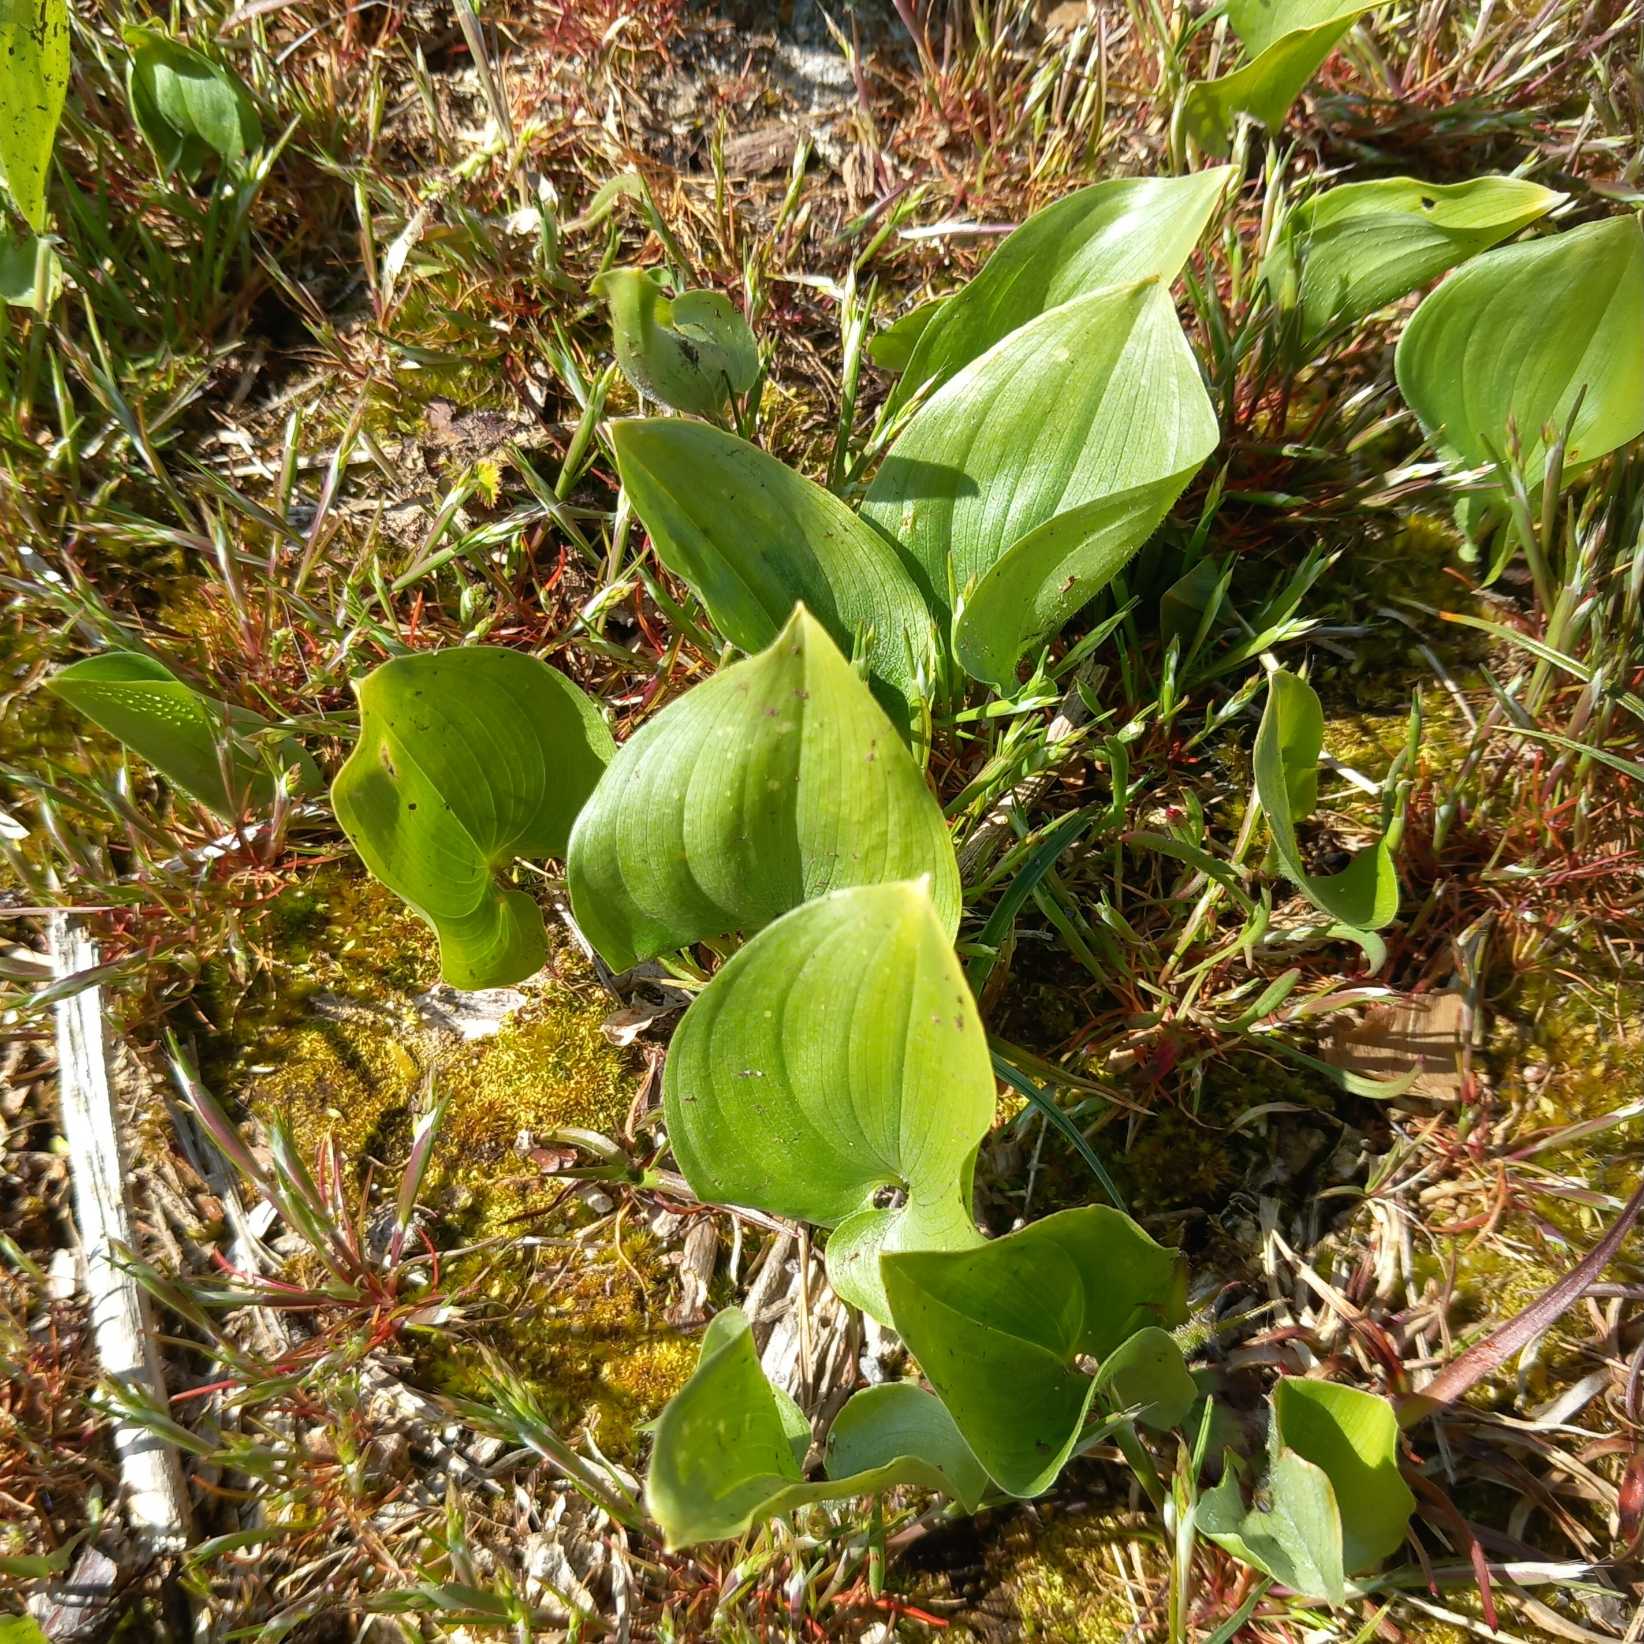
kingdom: Plantae
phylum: Tracheophyta
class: Liliopsida
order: Asparagales
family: Asparagaceae
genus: Maianthemum
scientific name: Maianthemum bifolium
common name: Majblomst
